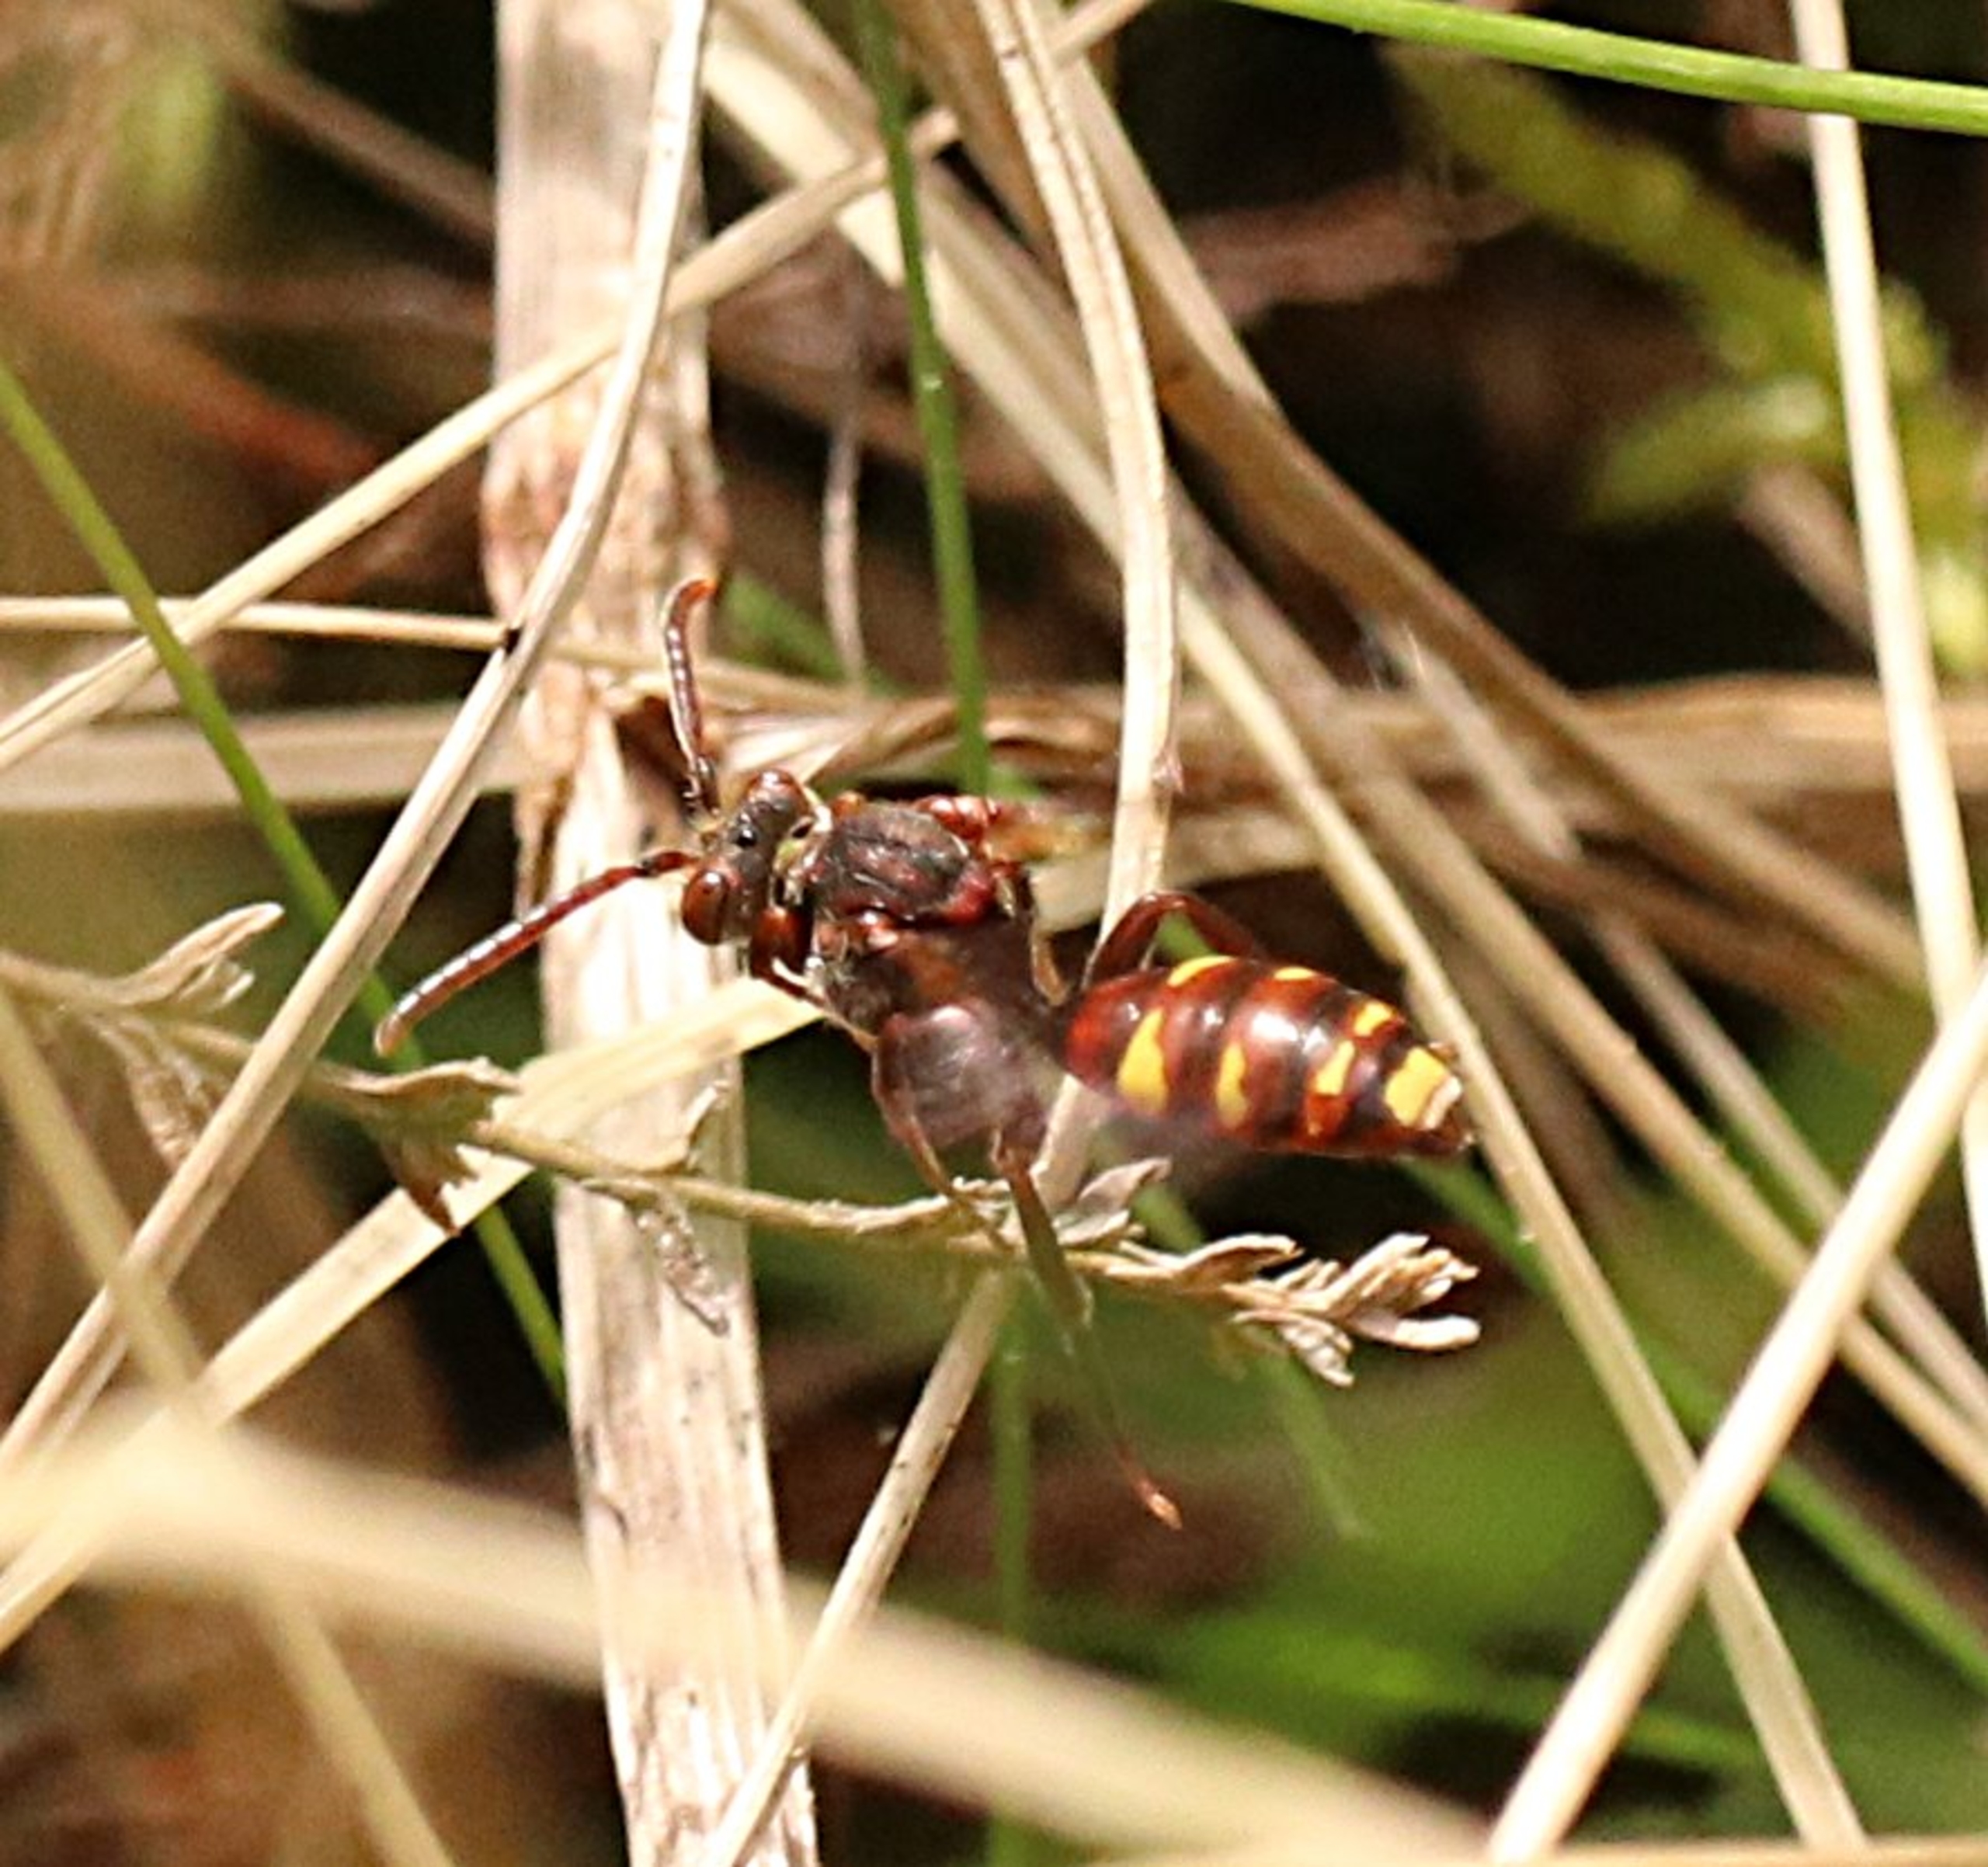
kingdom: Animalia
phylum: Arthropoda
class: Insecta
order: Hymenoptera
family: Apidae
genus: Nomada
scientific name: Nomada
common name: Hvepsebier
